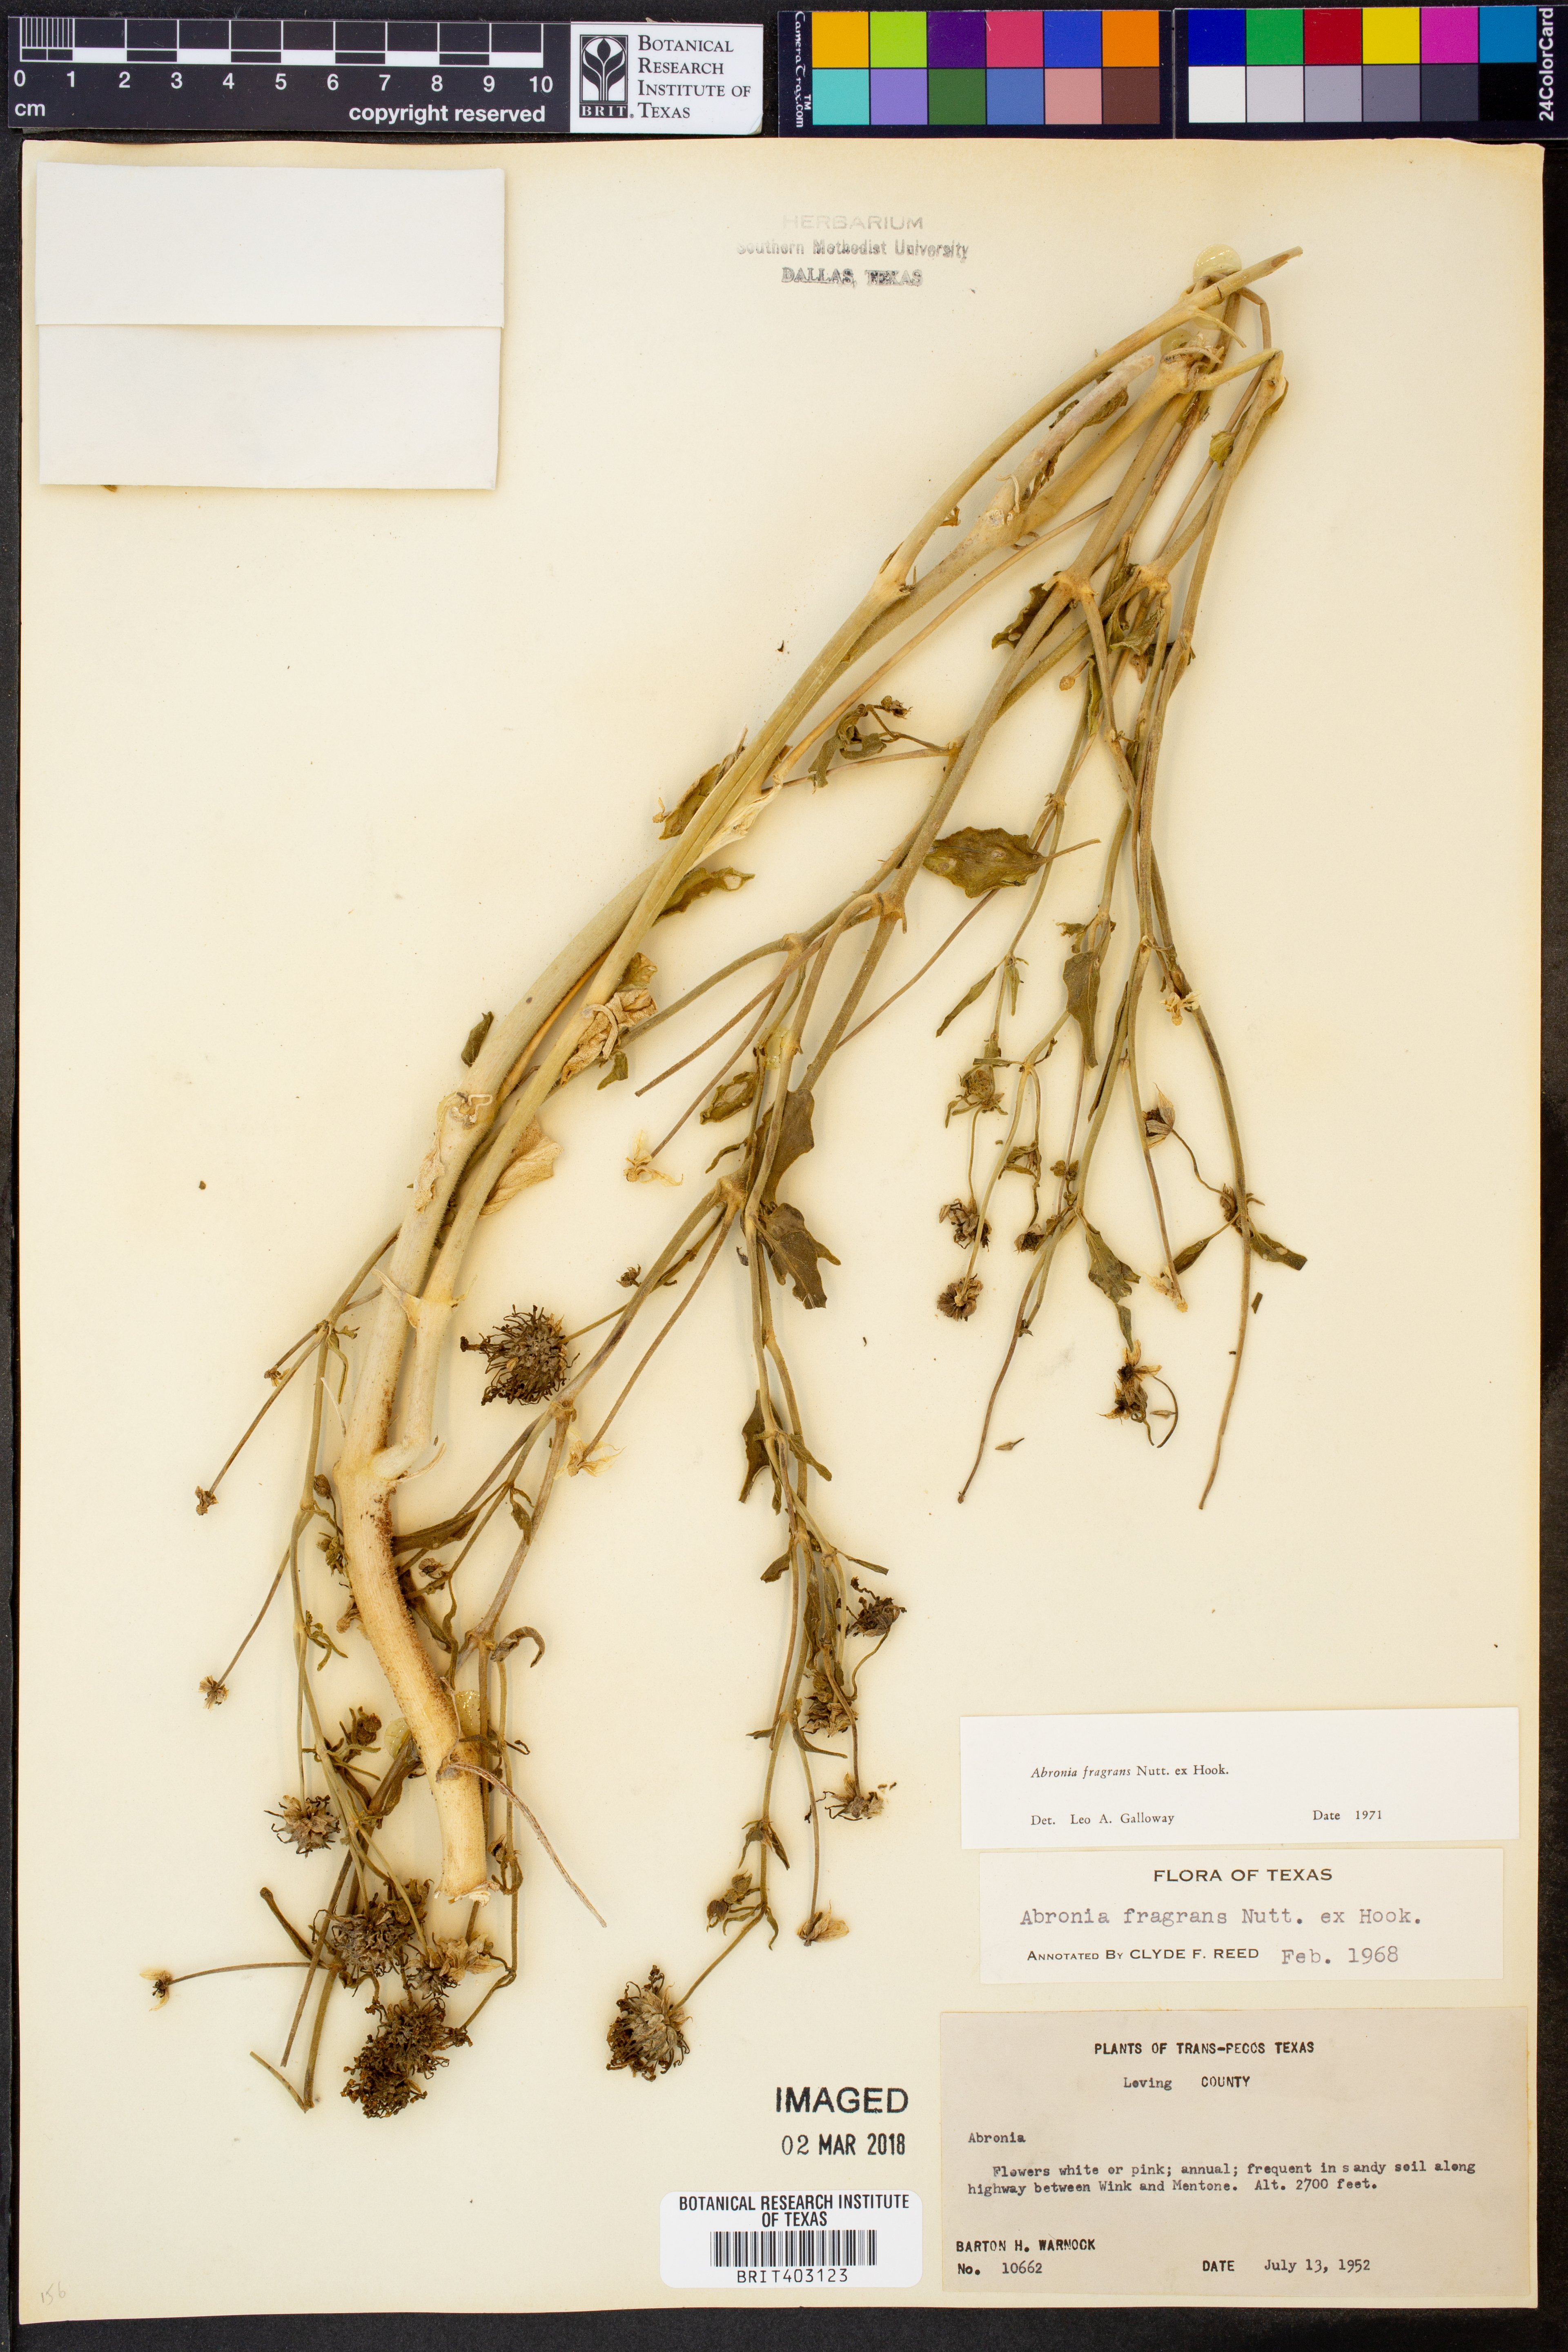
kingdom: Plantae
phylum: Tracheophyta
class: Magnoliopsida
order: Caryophyllales
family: Nyctaginaceae
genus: Abronia
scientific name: Abronia fragrans
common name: Fragrant sand-verbena
